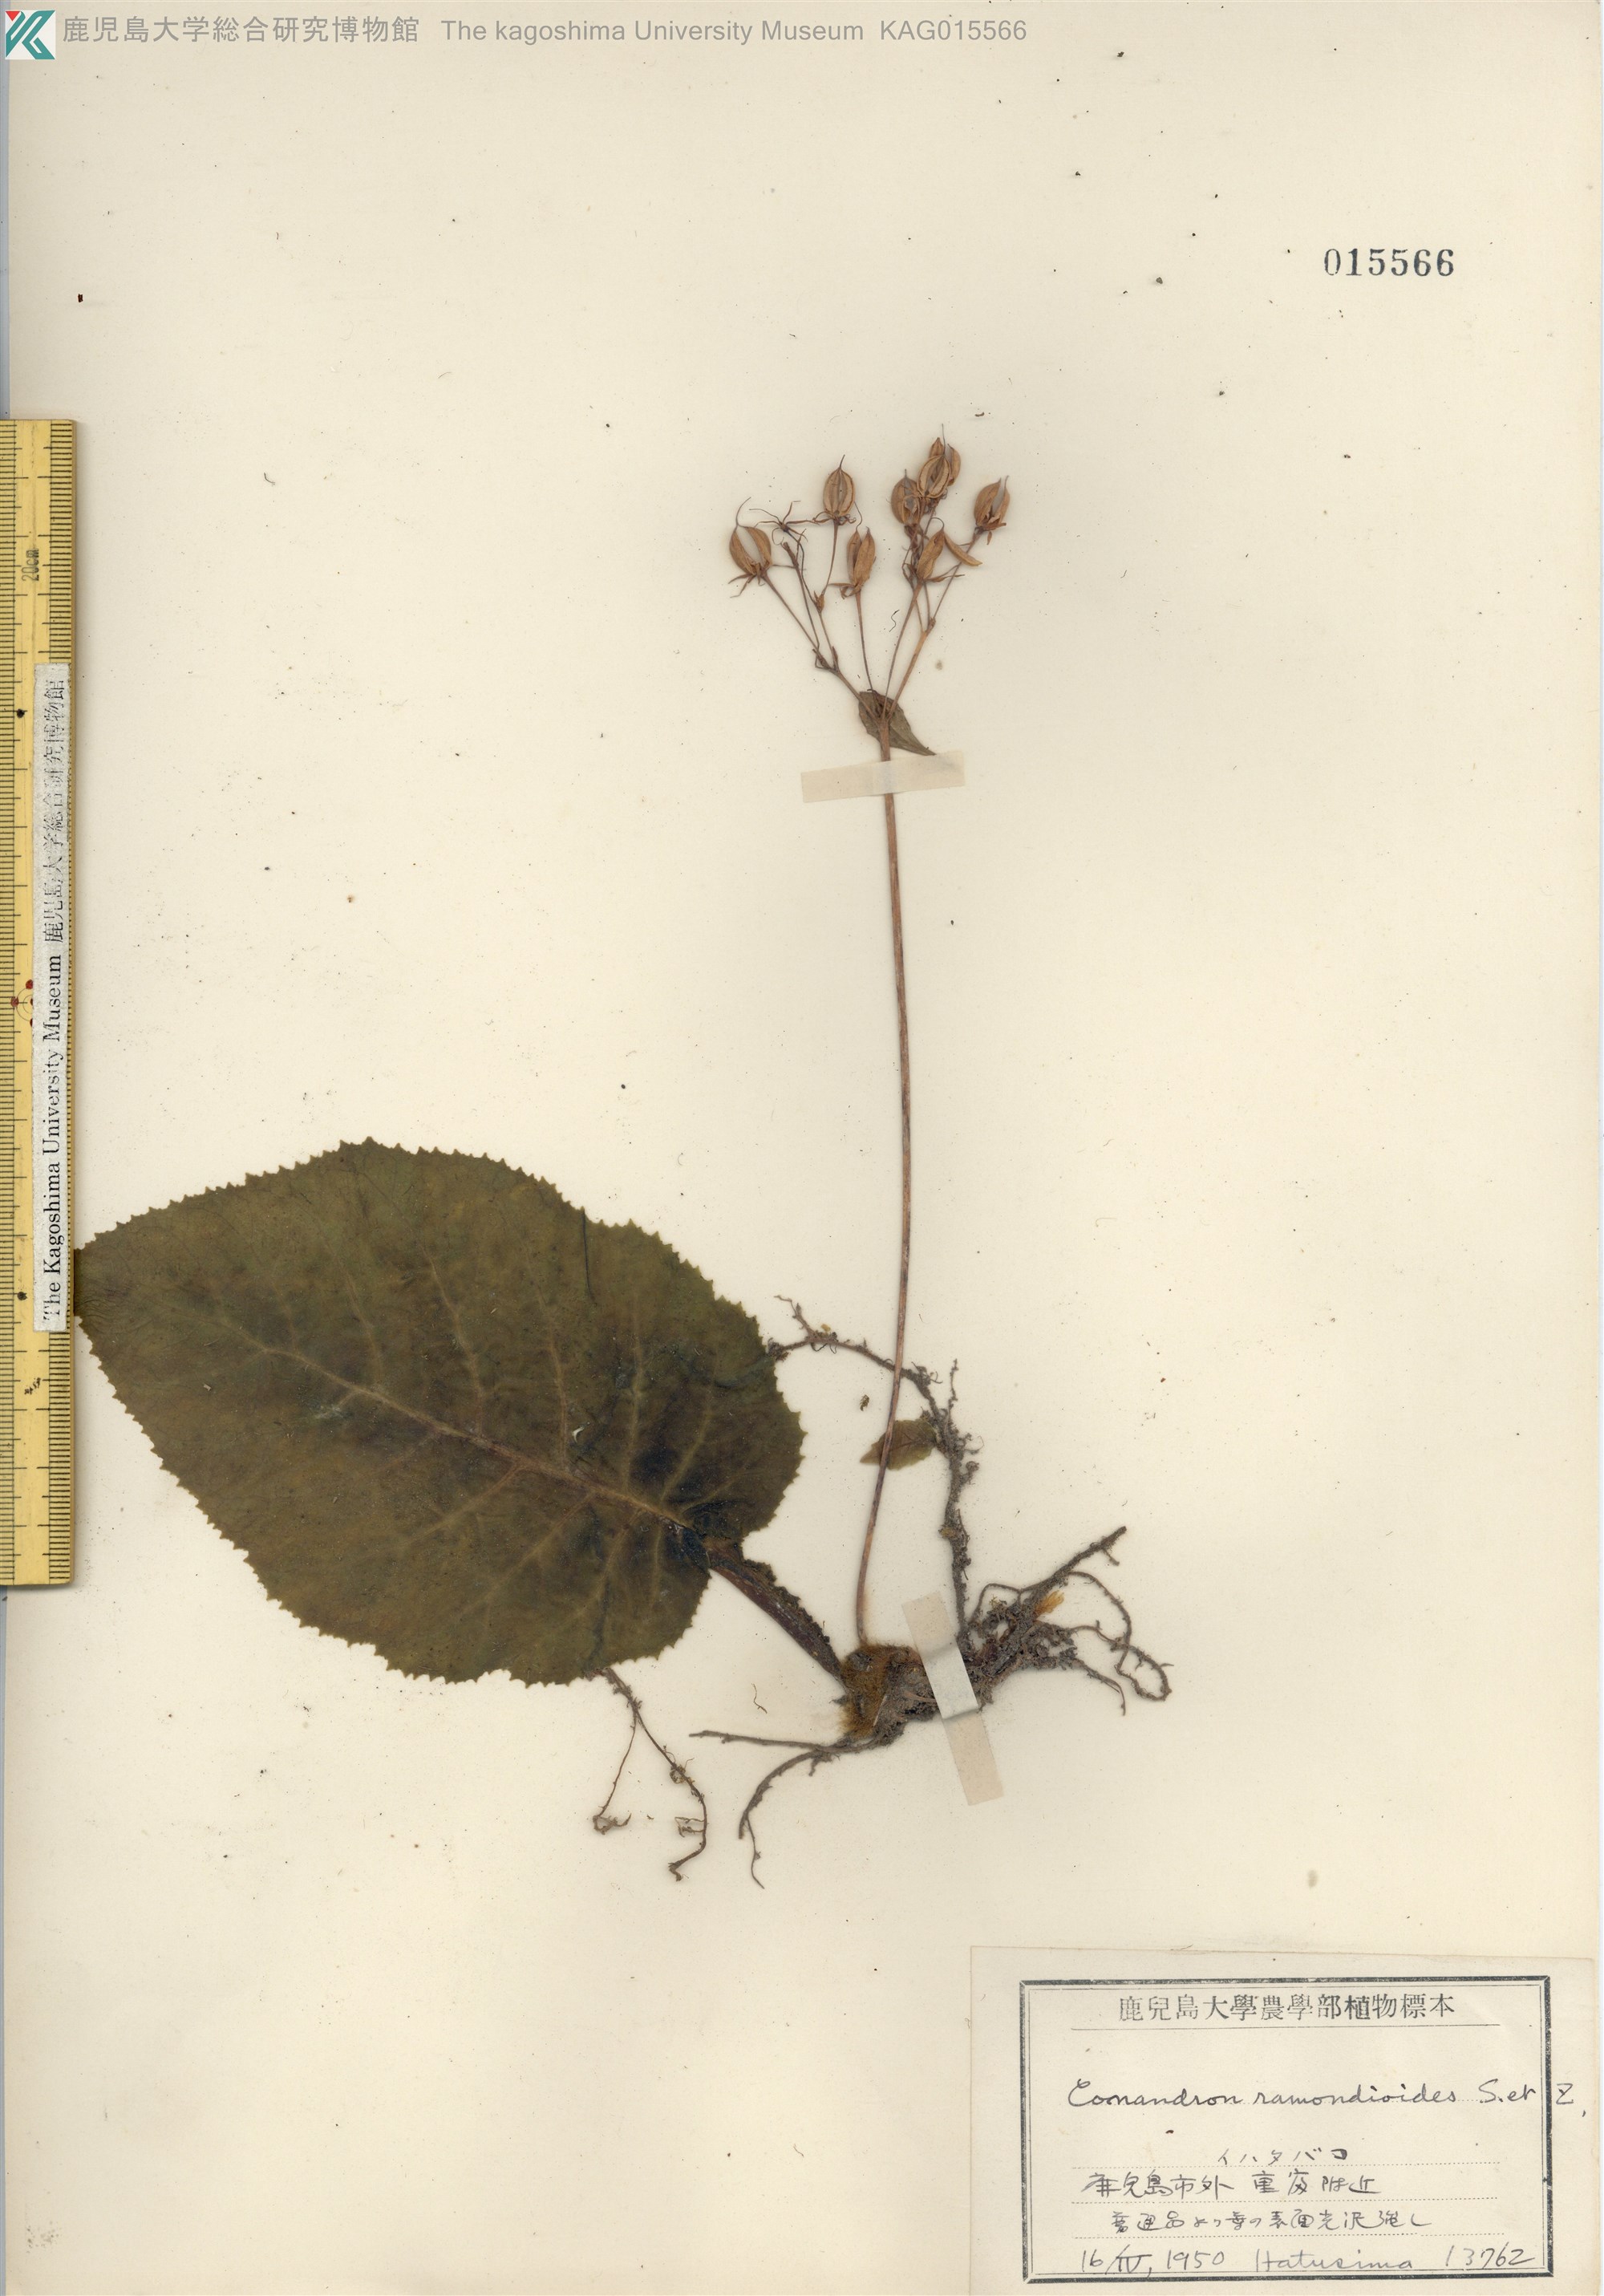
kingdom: Plantae
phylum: Tracheophyta
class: Magnoliopsida
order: Lamiales
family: Gesneriaceae
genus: Conandron
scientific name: Conandron ramondioides
